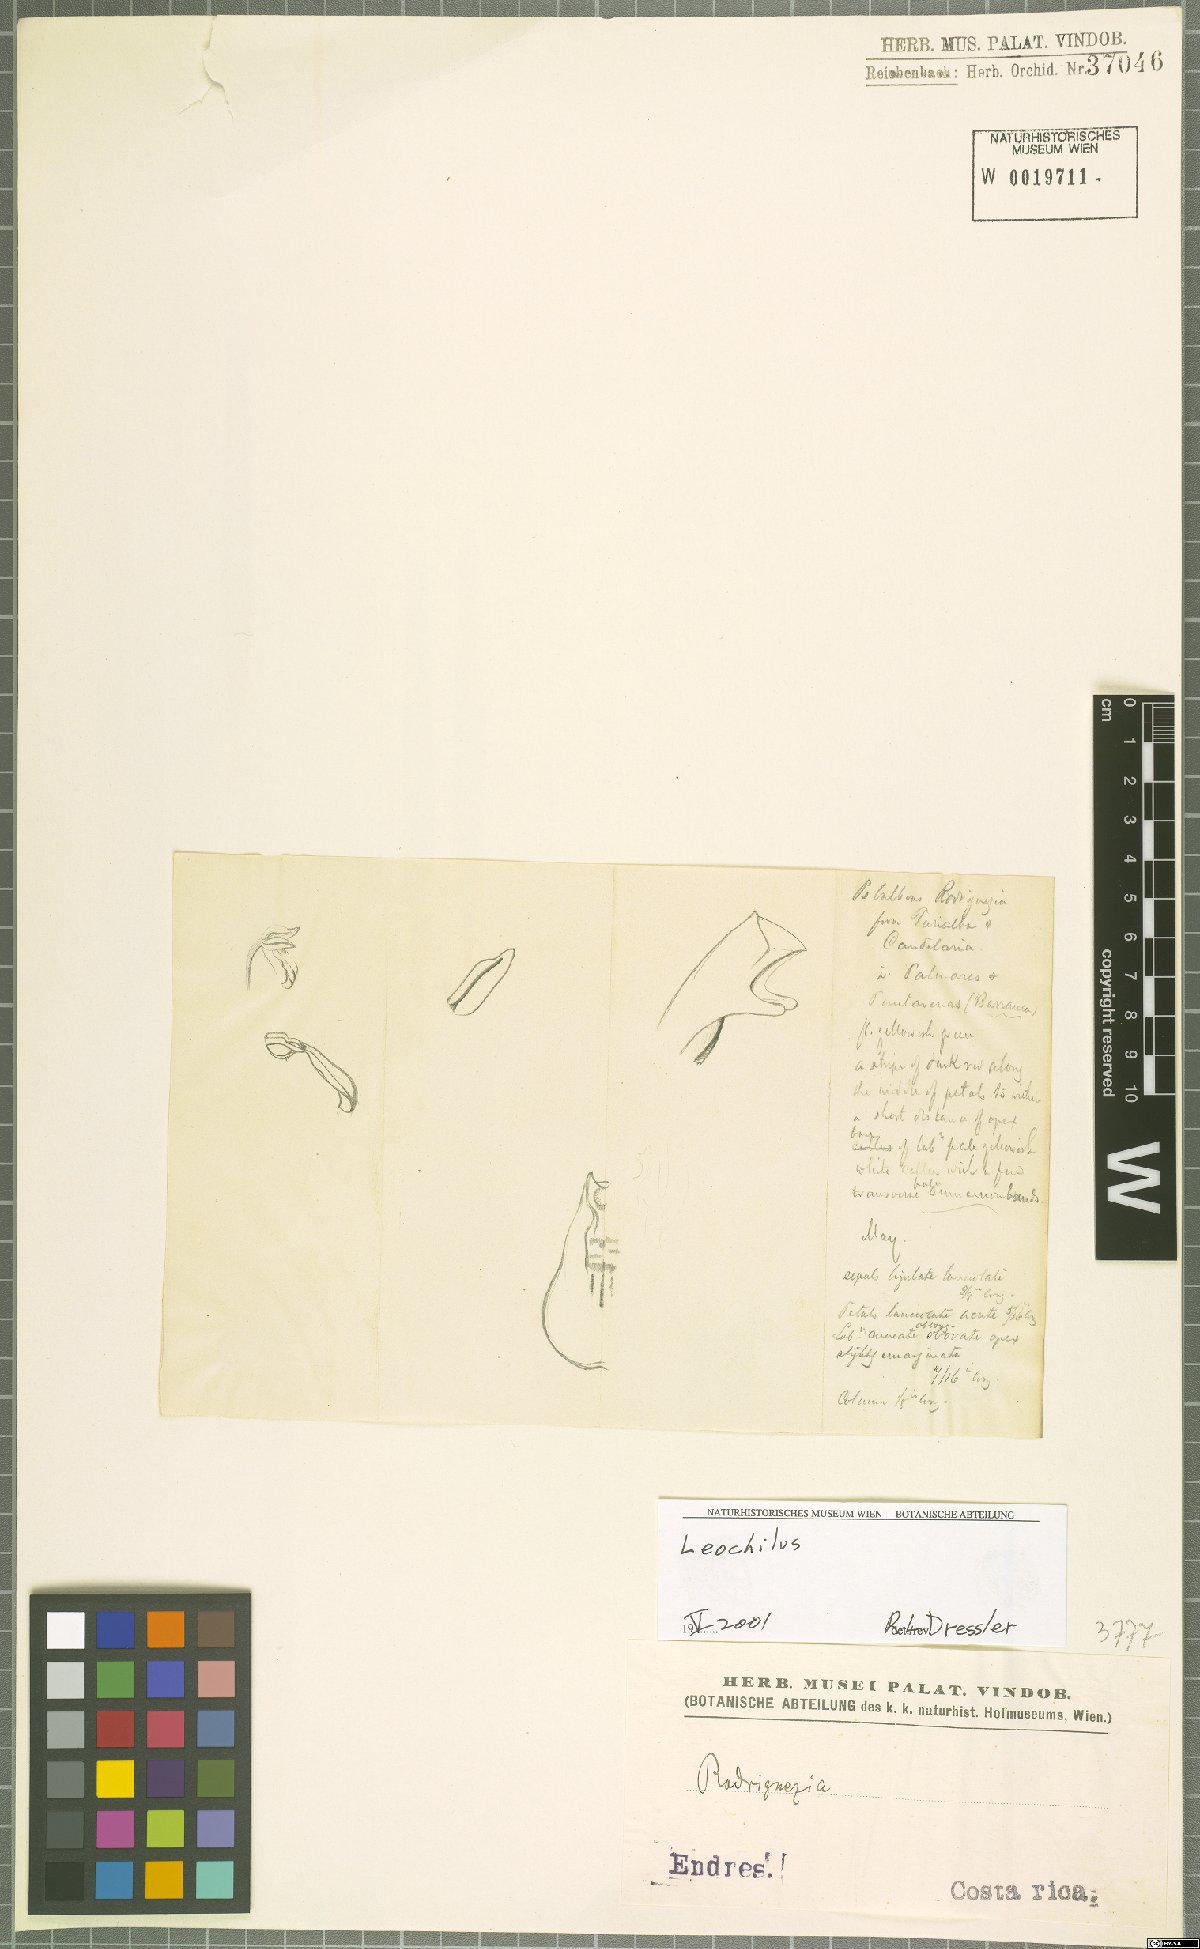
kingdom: Plantae
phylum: Tracheophyta
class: Liliopsida
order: Asparagales
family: Orchidaceae
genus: Leochilus
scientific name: Leochilus
